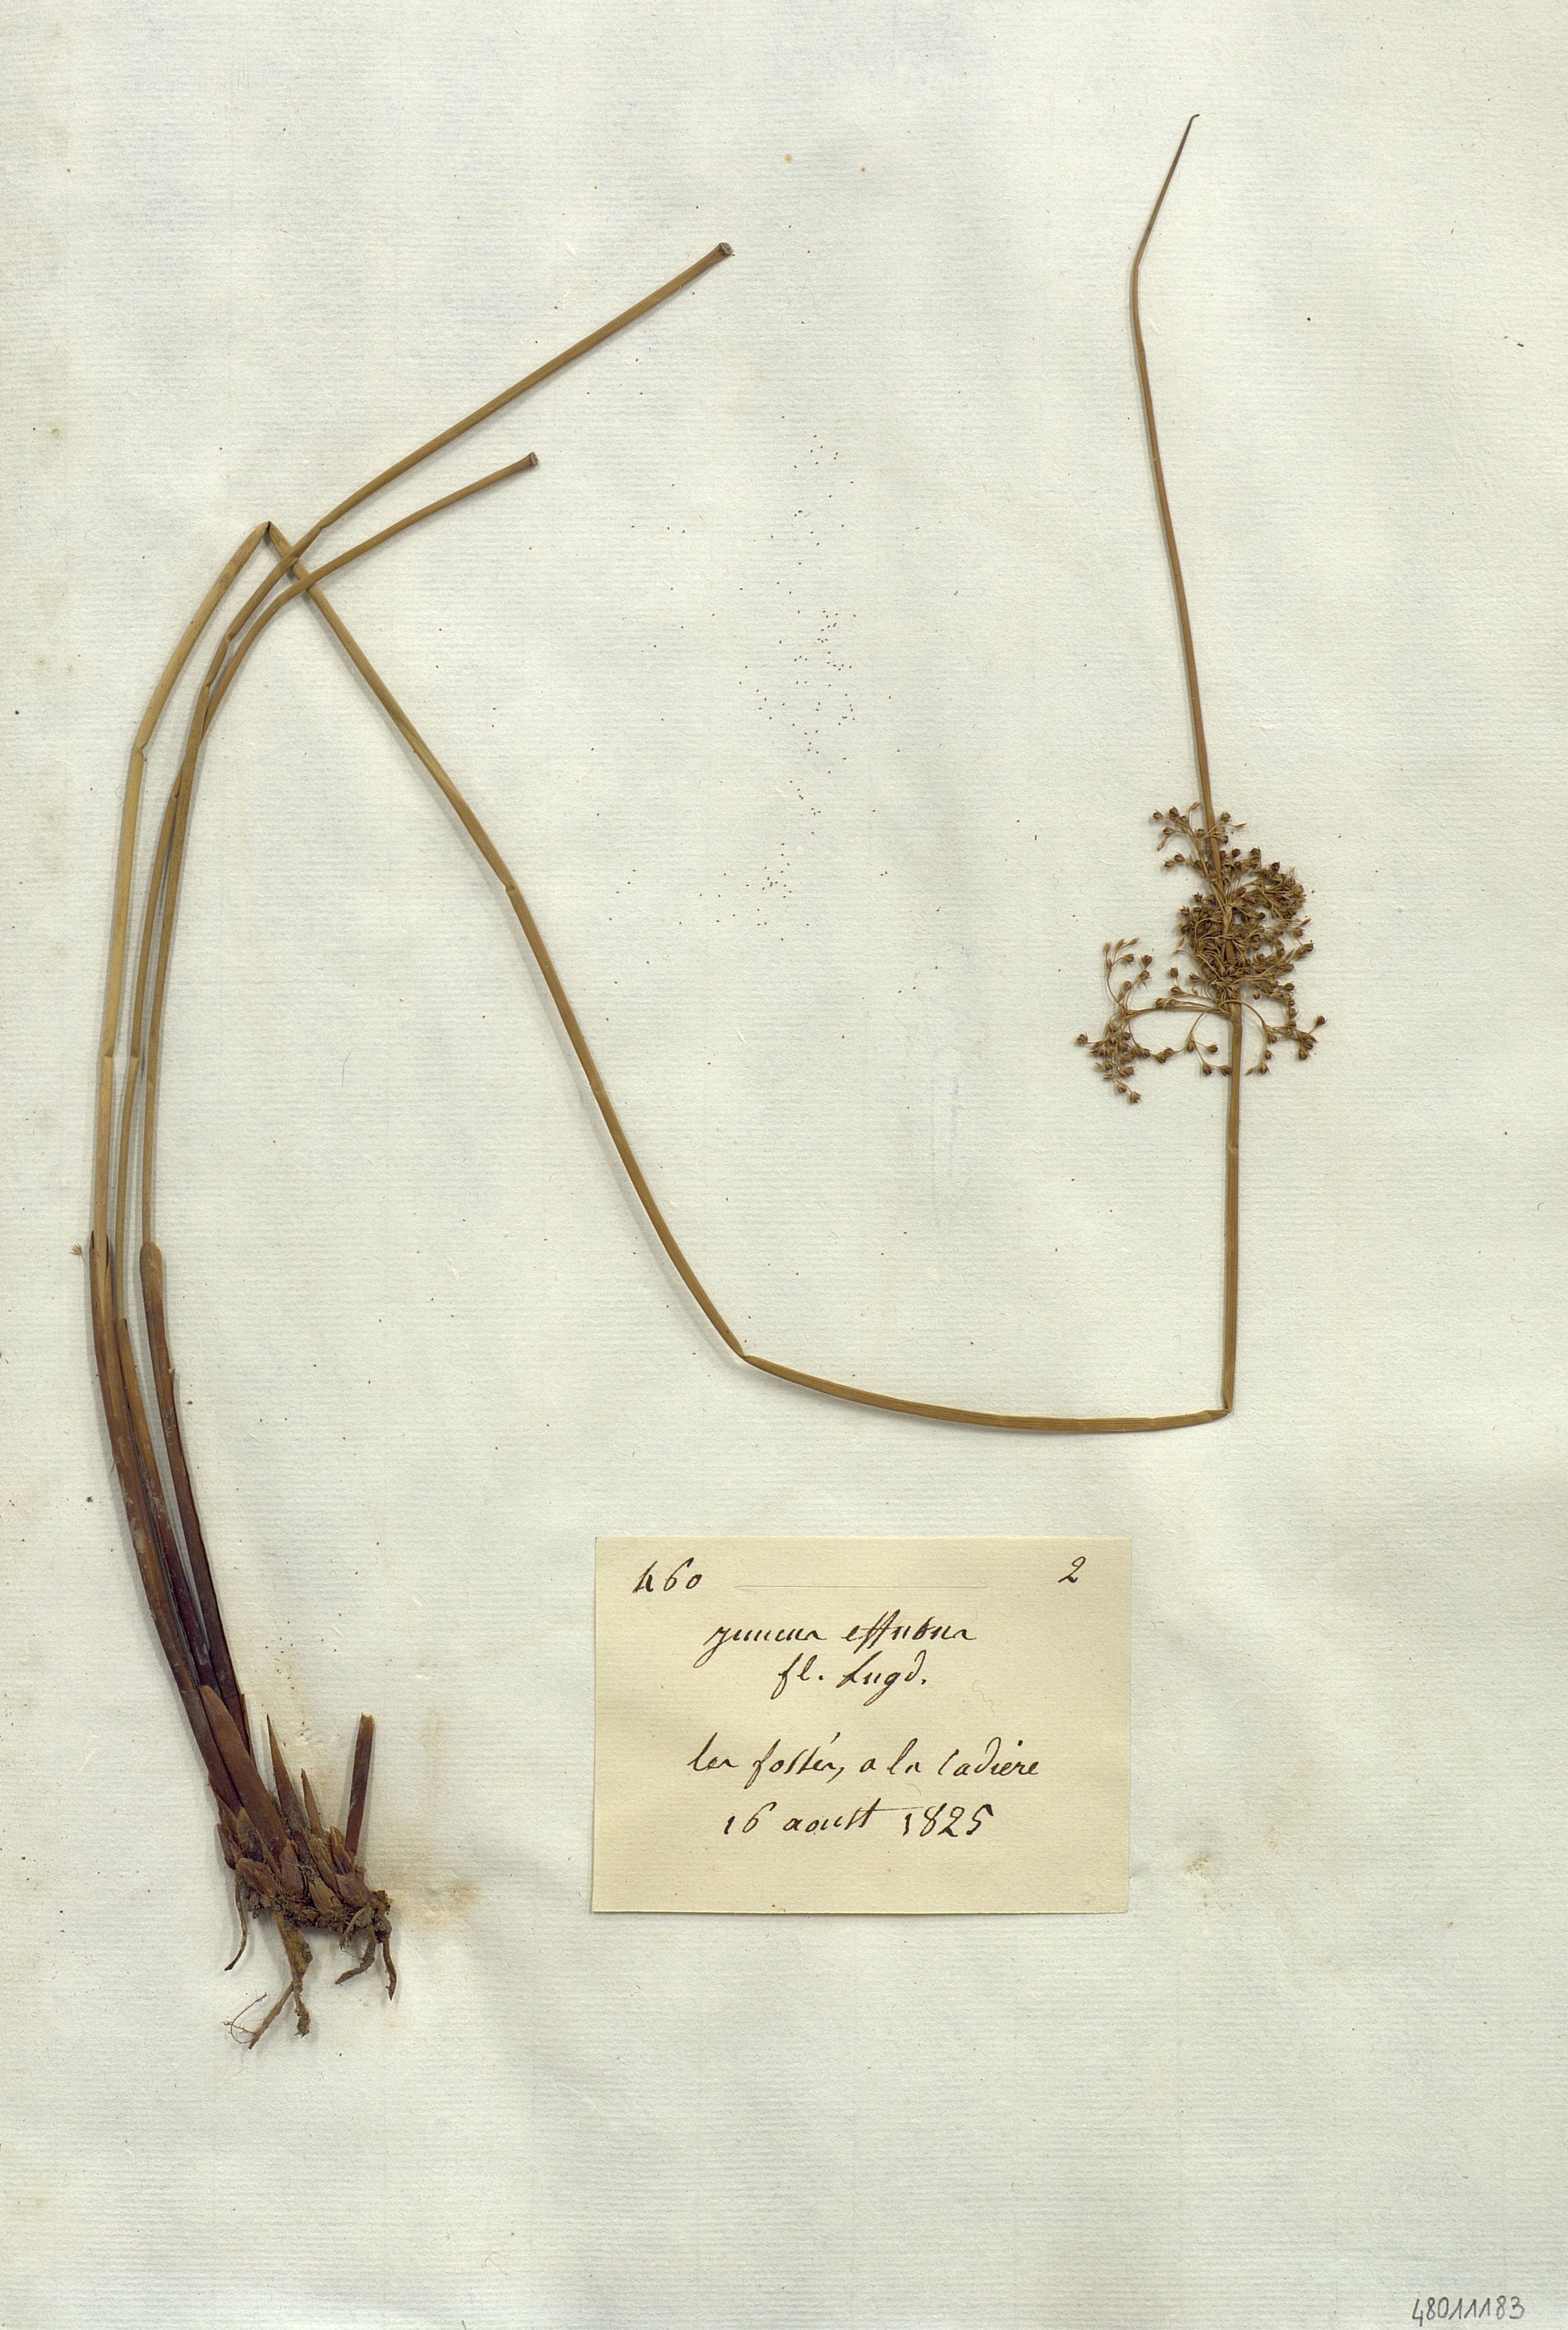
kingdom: Plantae
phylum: Tracheophyta
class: Liliopsida
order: Poales
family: Juncaceae
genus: Juncus
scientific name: Juncus effusus
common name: Soft rush
